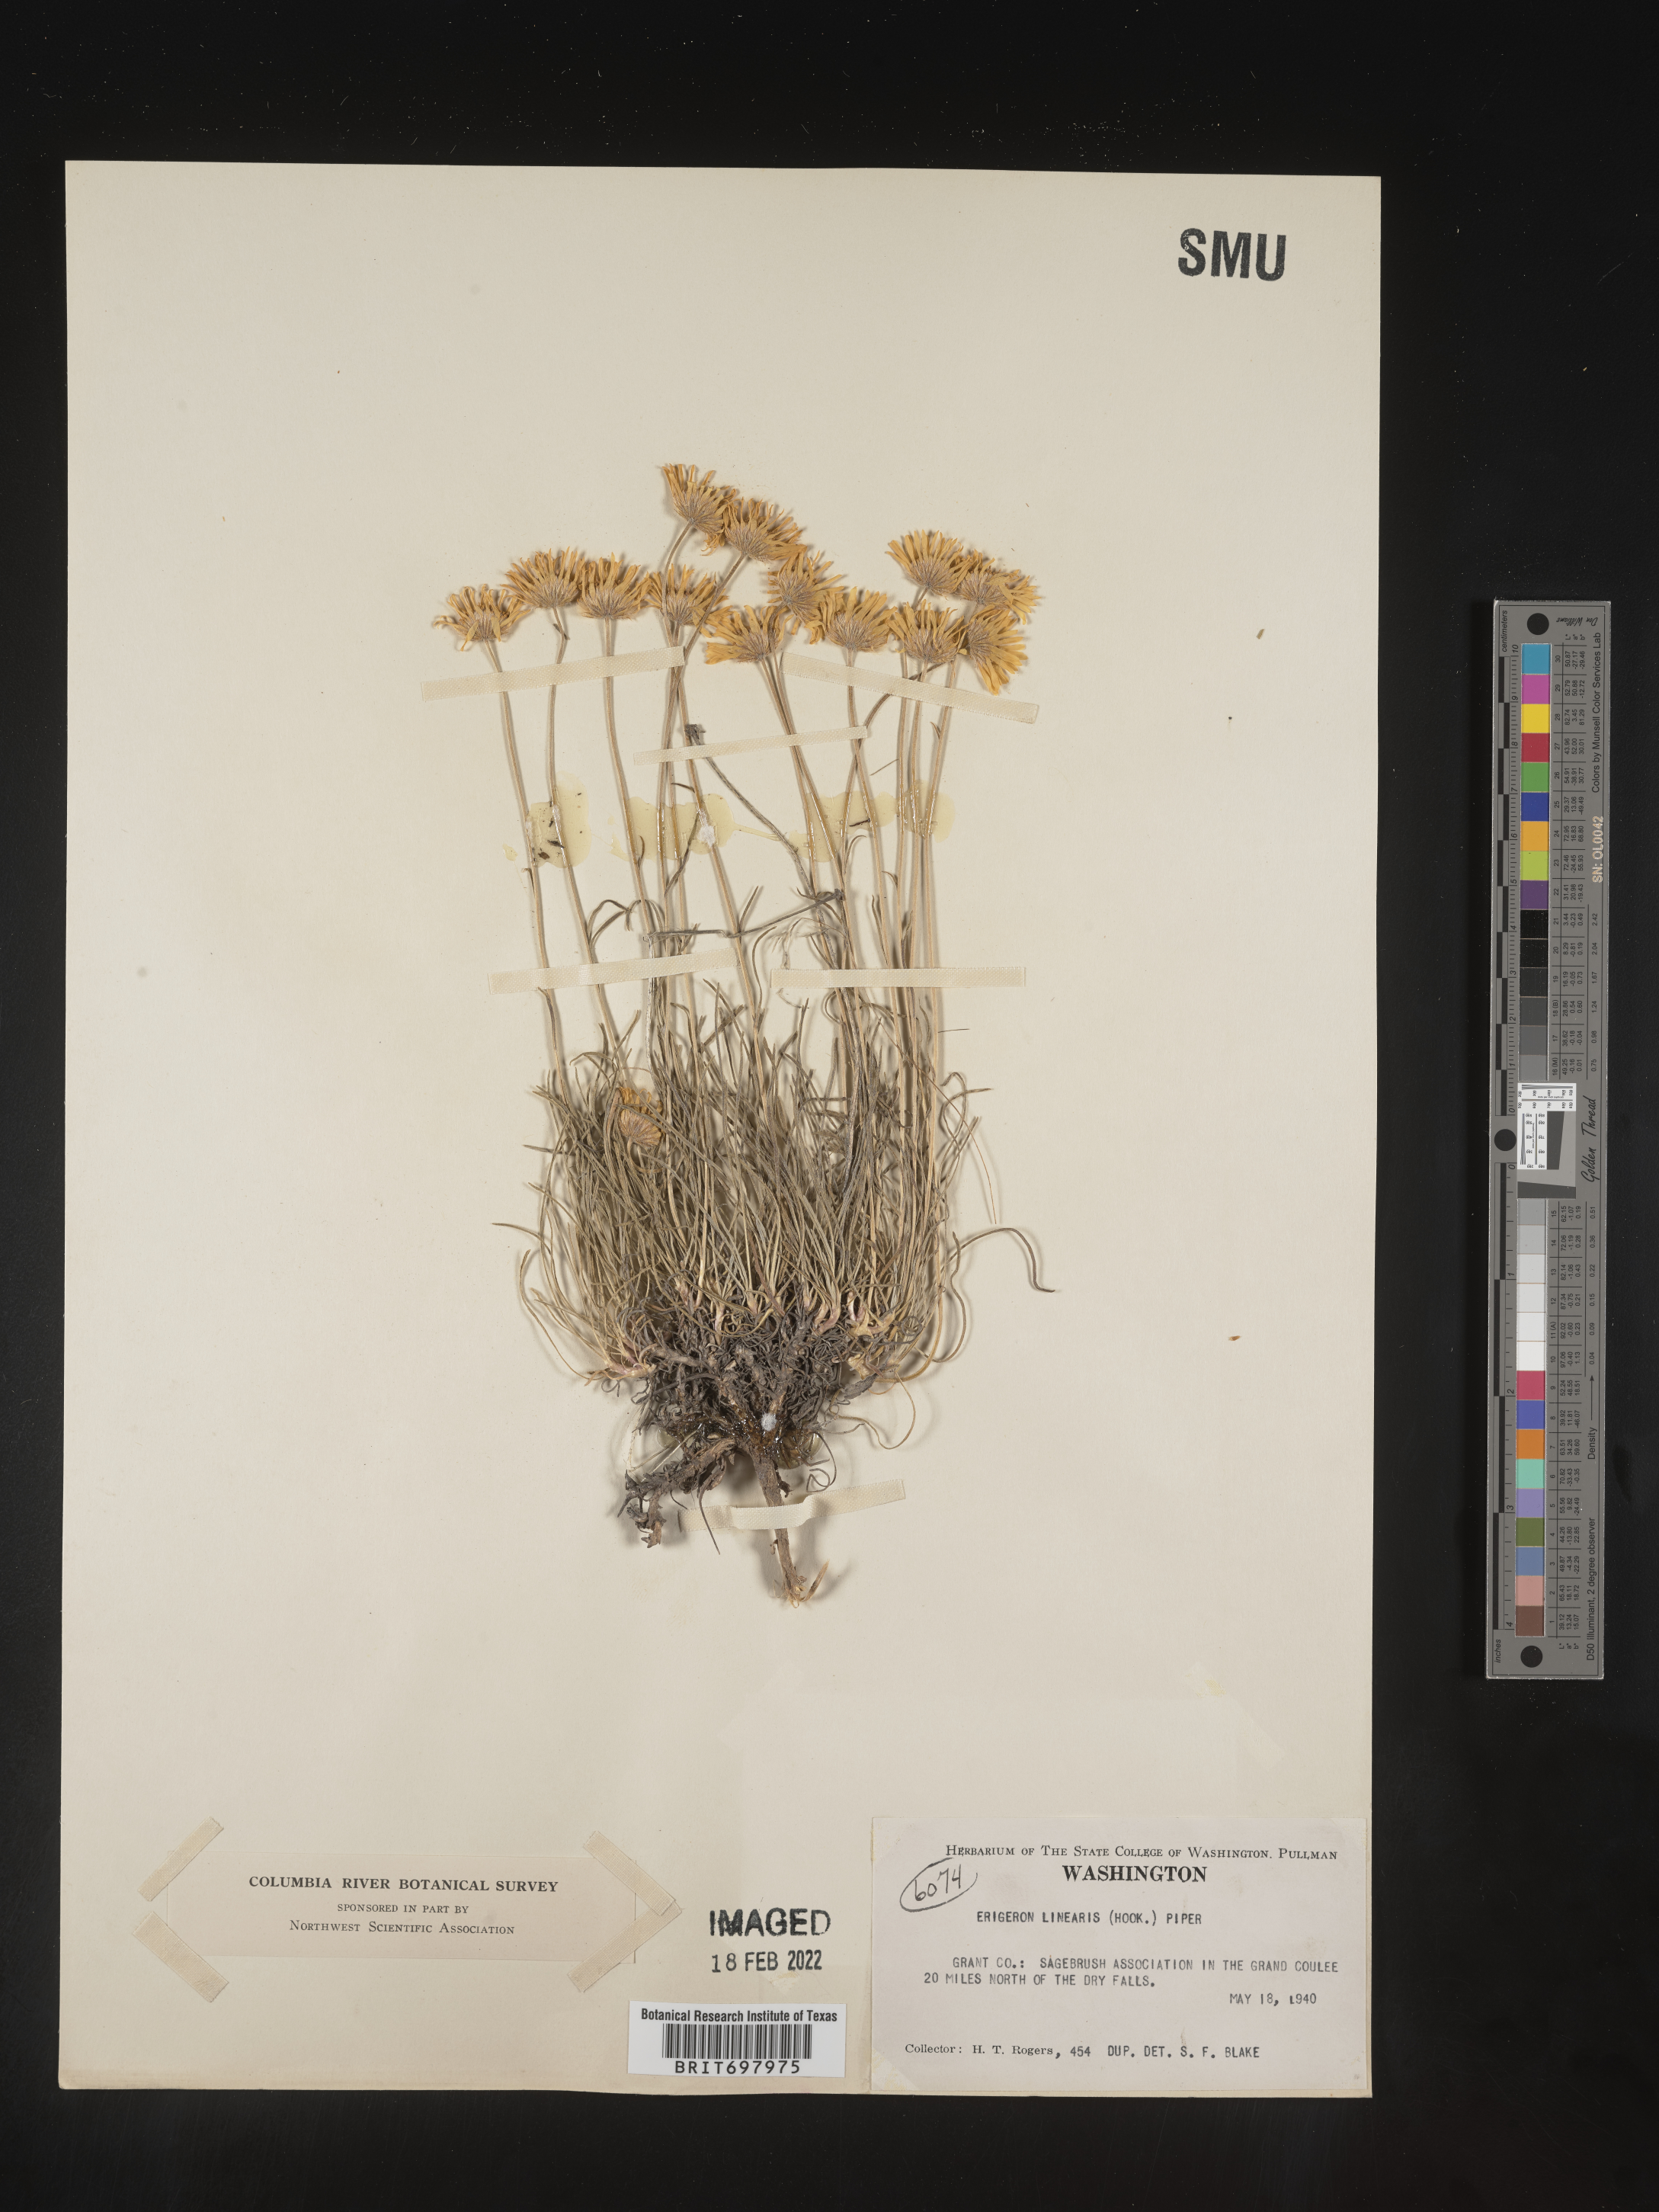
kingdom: Plantae
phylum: Tracheophyta
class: Magnoliopsida
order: Asterales
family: Asteraceae
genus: Erigeron
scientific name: Erigeron linearis
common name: Desert yellow fleabane
